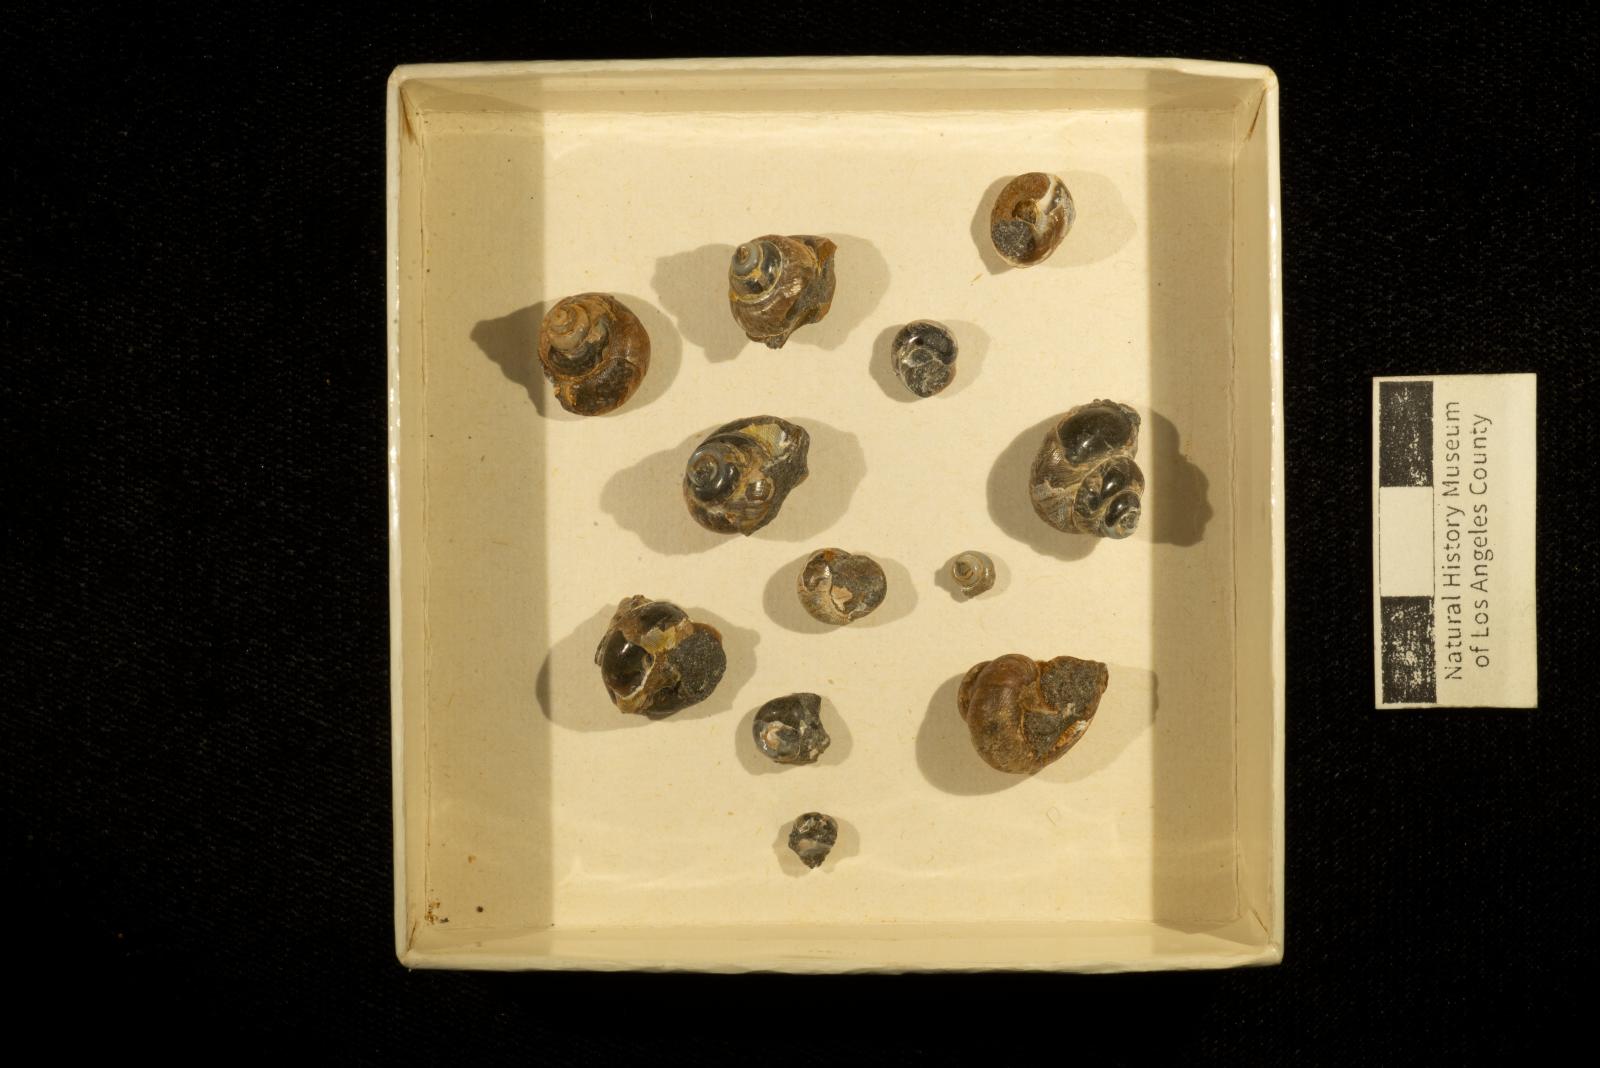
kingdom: Animalia
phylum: Mollusca
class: Gastropoda
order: Trochida
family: Turbinidae
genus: Igonoia
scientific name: Igonoia
